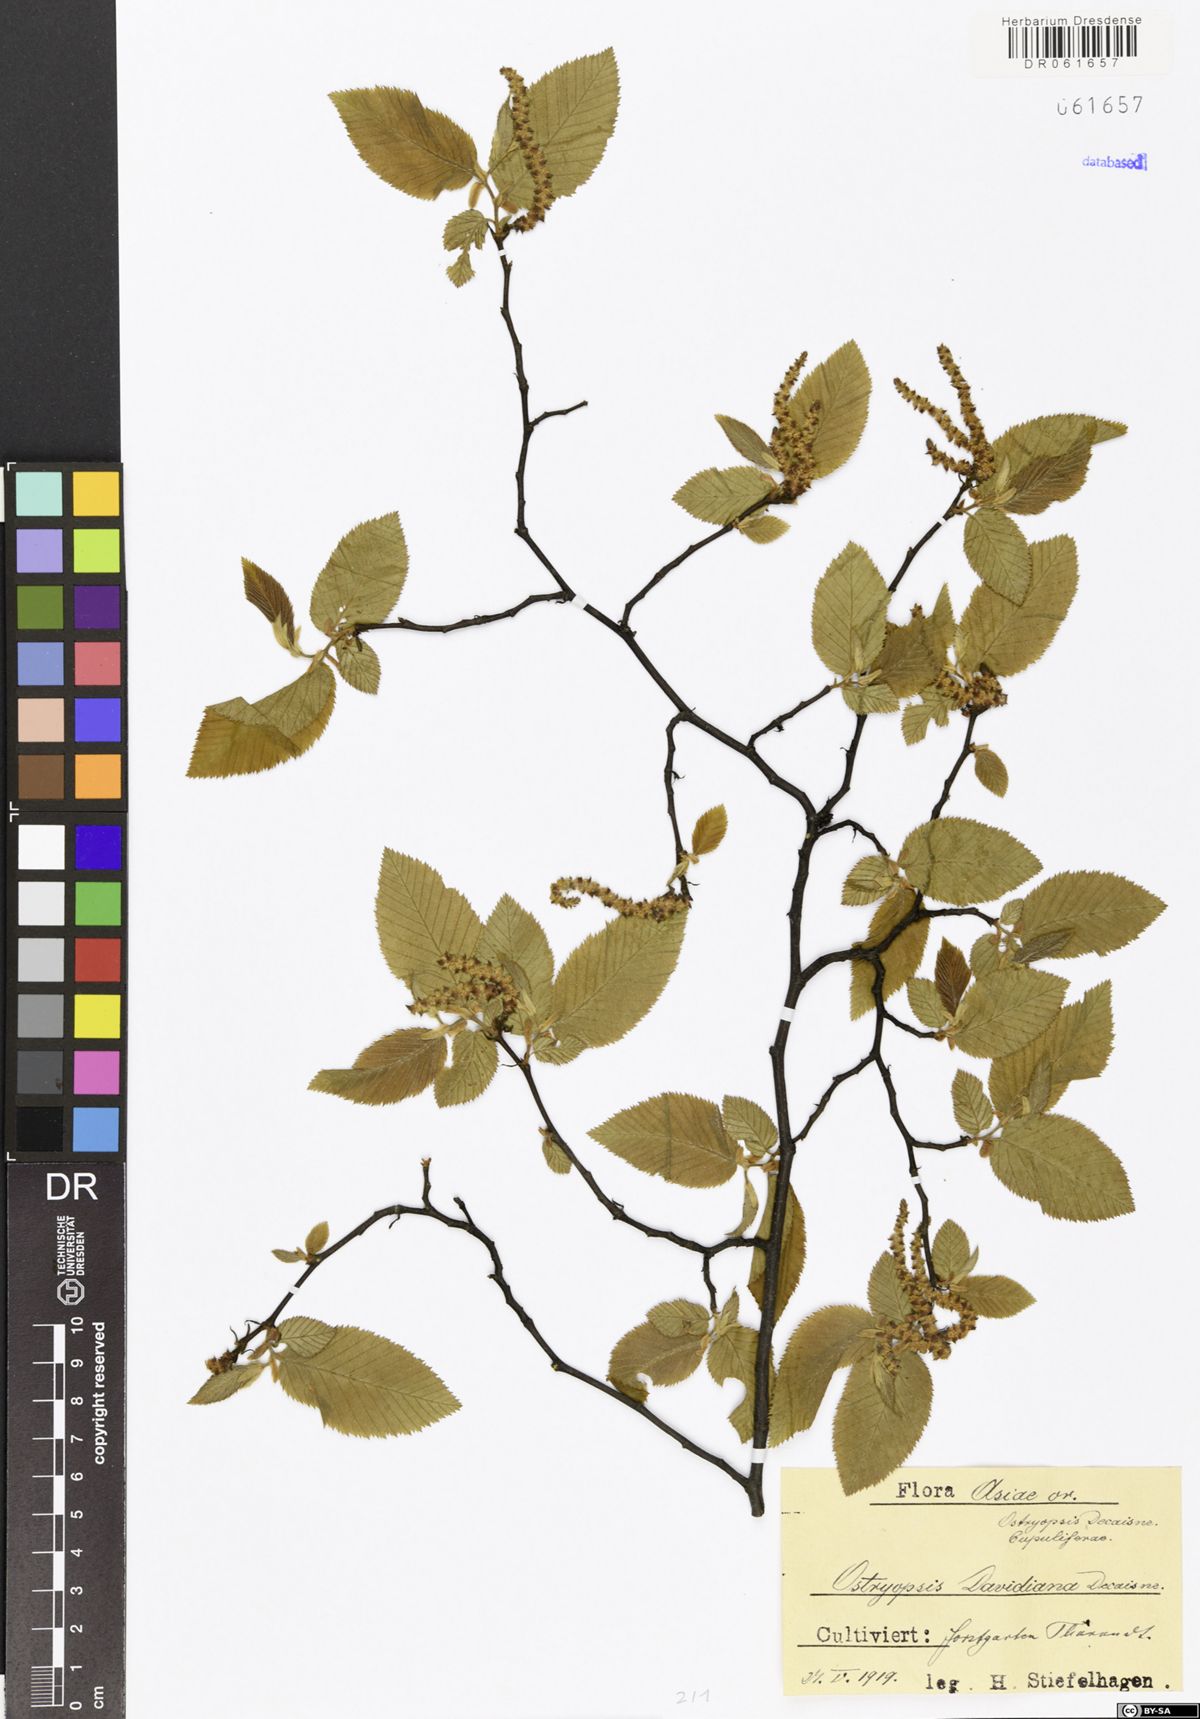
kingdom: Plantae
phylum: Tracheophyta
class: Magnoliopsida
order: Fagales
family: Betulaceae
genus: Ostryopsis
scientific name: Ostryopsis davidiana
